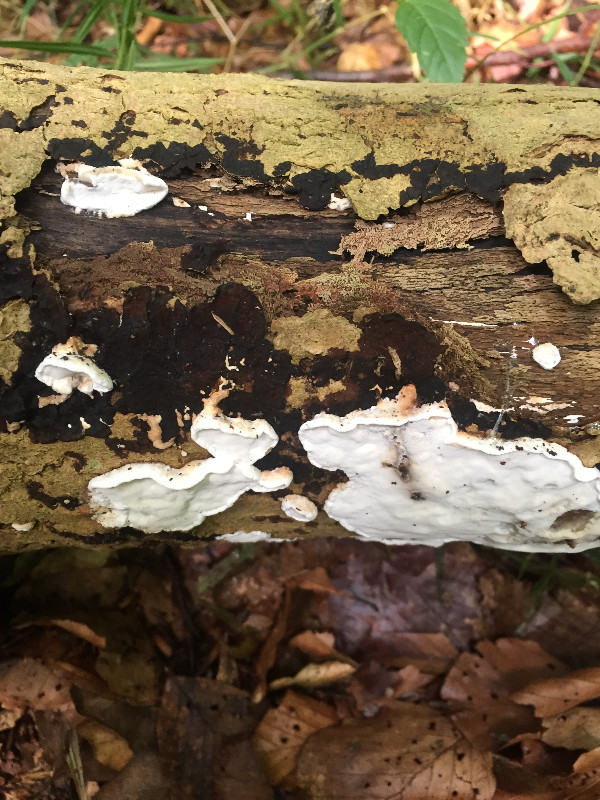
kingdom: Fungi
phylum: Basidiomycota
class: Agaricomycetes
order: Polyporales
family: Incrustoporiaceae
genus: Skeletocutis
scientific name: Skeletocutis nemoralis
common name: stor krystalporesvamp
